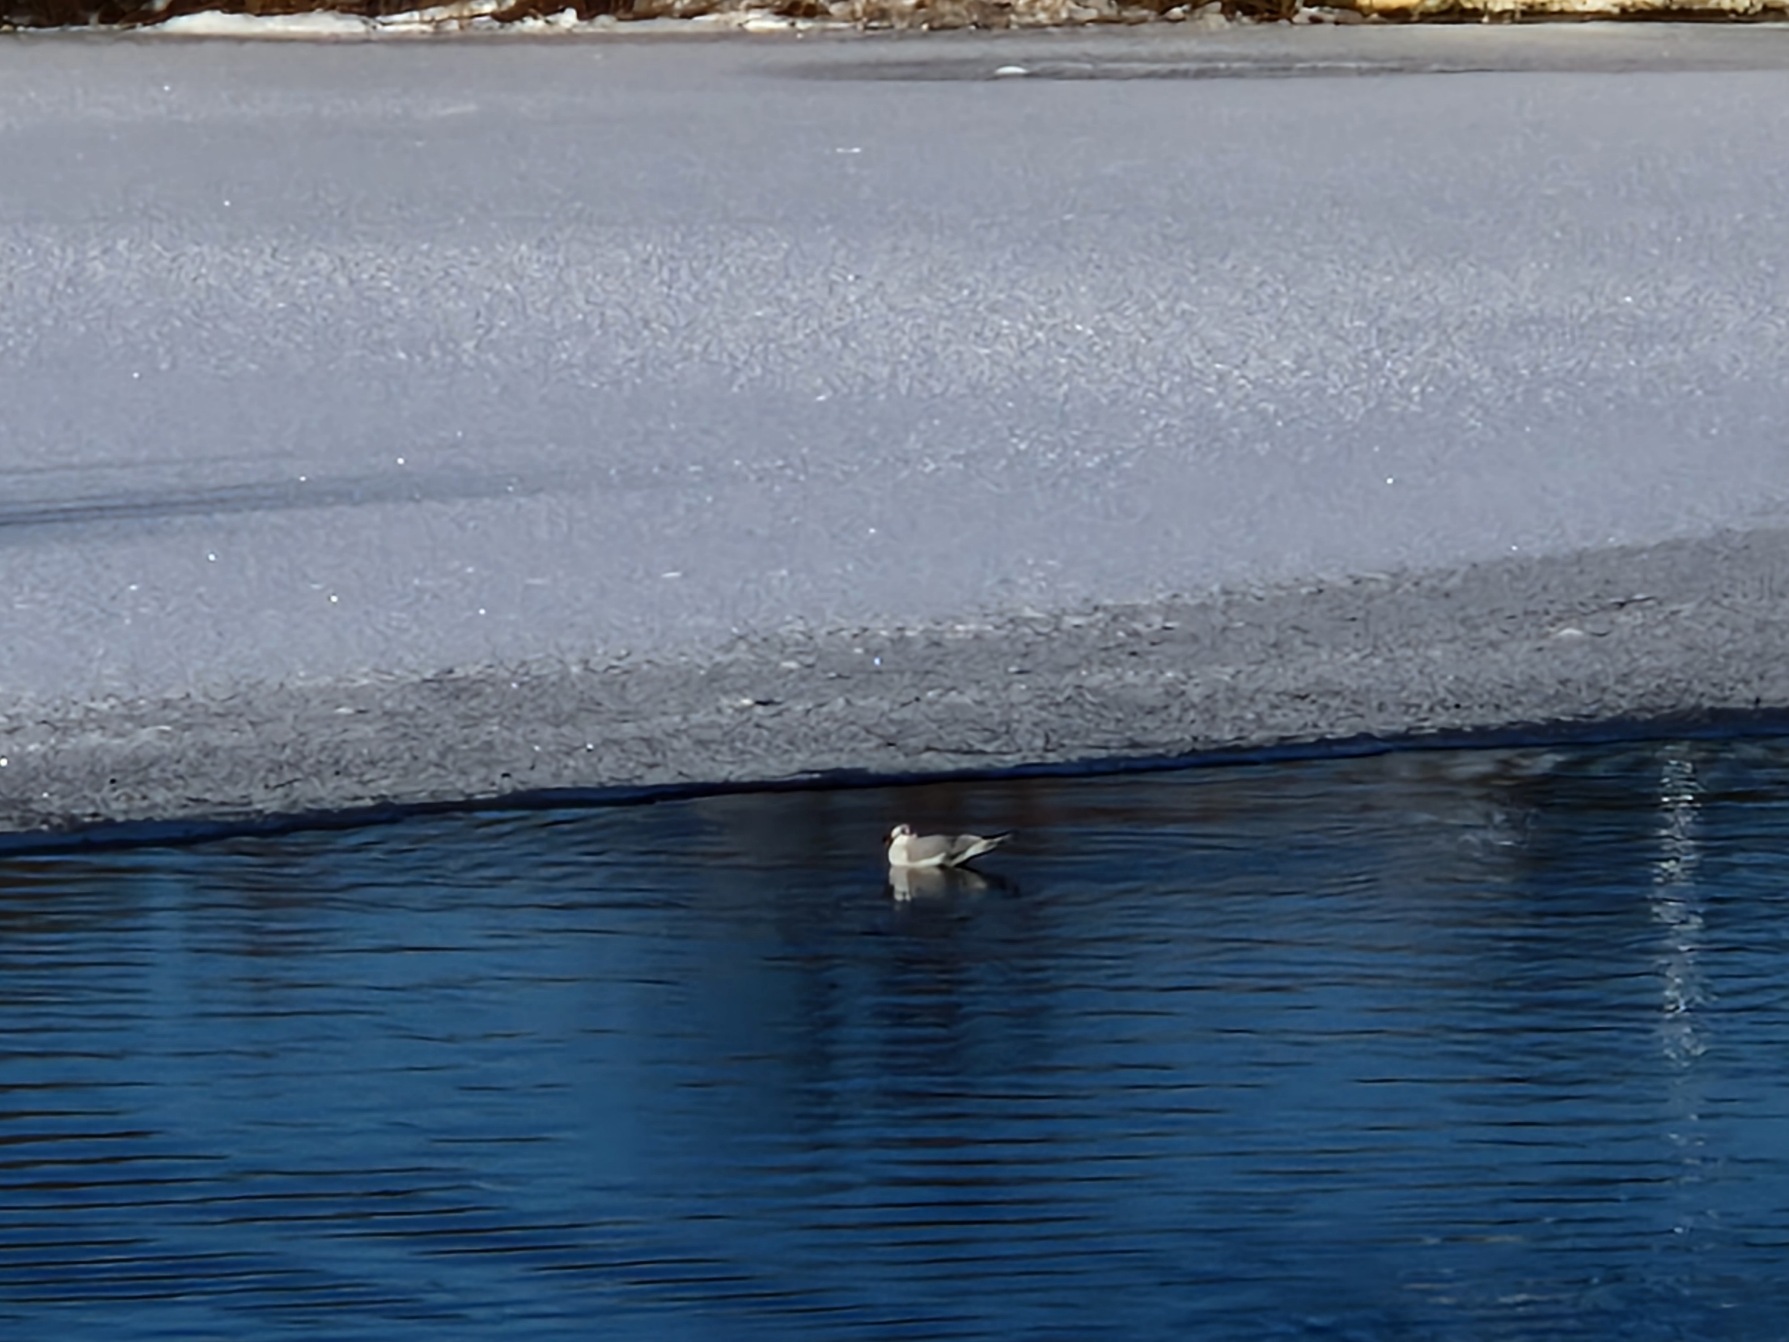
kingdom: Animalia
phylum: Chordata
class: Aves
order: Charadriiformes
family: Laridae
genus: Chroicocephalus
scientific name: Chroicocephalus ridibundus
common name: Hættemåge
